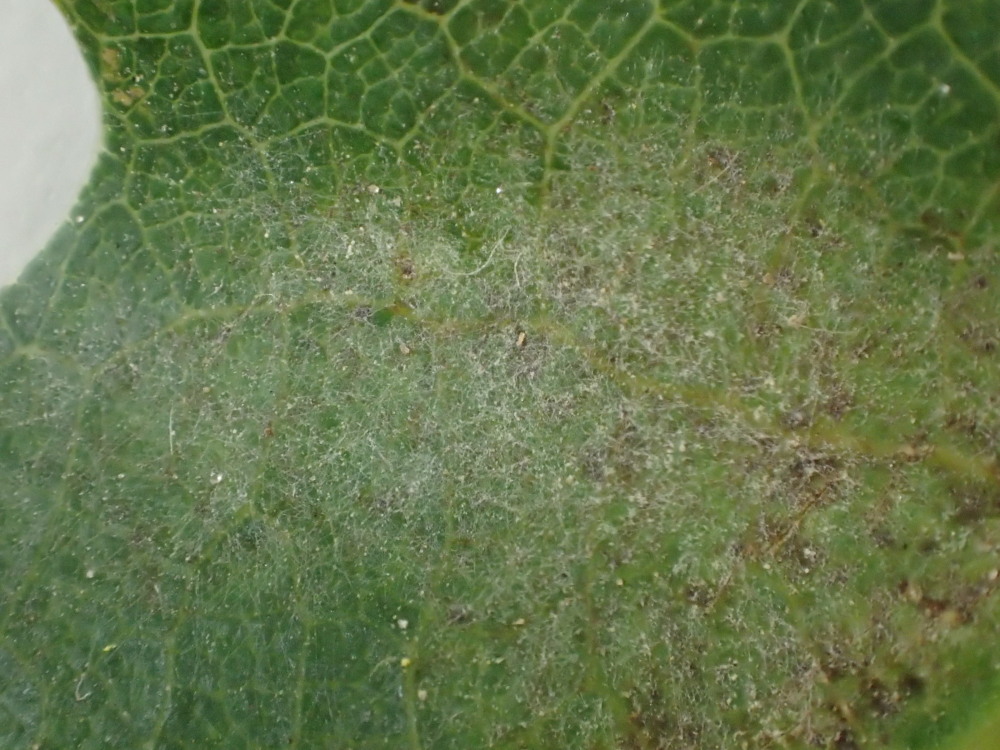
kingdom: Fungi
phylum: Ascomycota
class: Leotiomycetes
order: Helotiales
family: Erysiphaceae
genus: Erysiphe
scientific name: Erysiphe alphitoides
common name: ege-meldug
